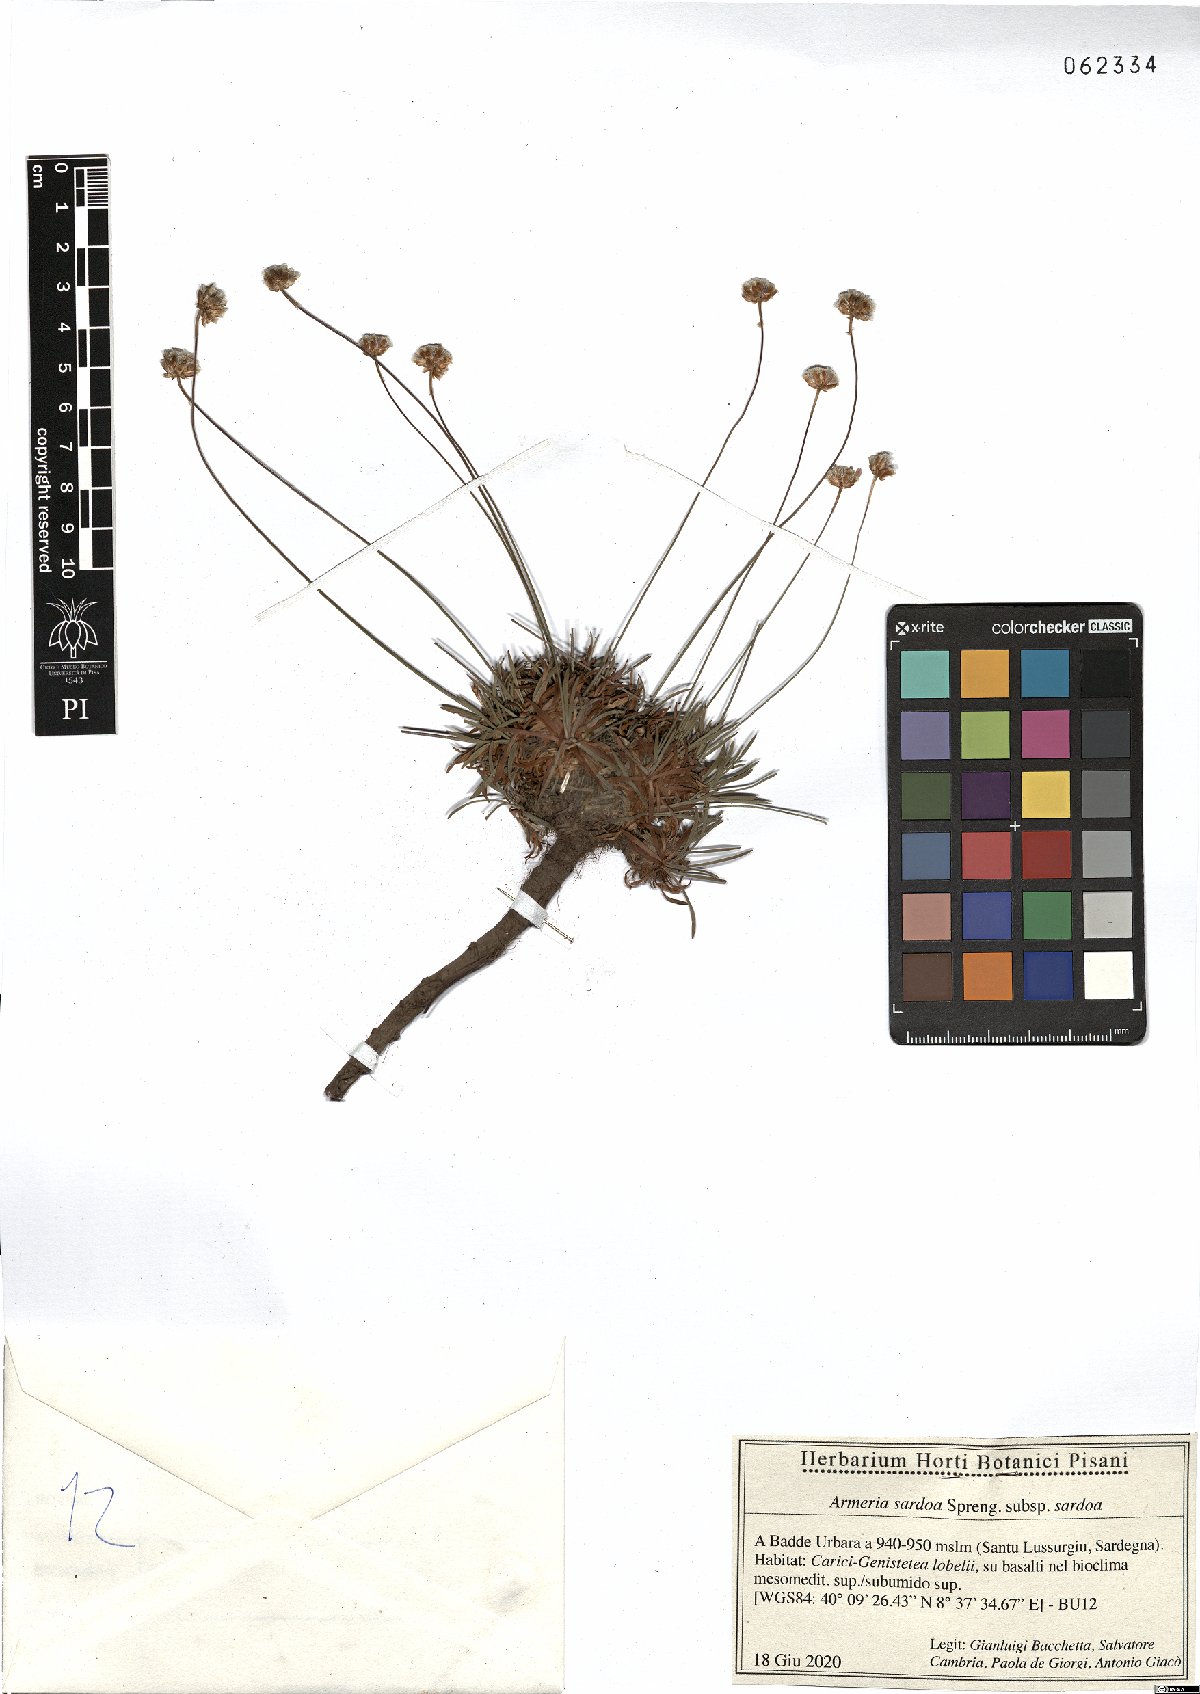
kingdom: Plantae
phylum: Tracheophyta
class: Magnoliopsida
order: Caryophyllales
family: Plumbaginaceae
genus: Armeria
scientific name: Armeria sardoa
